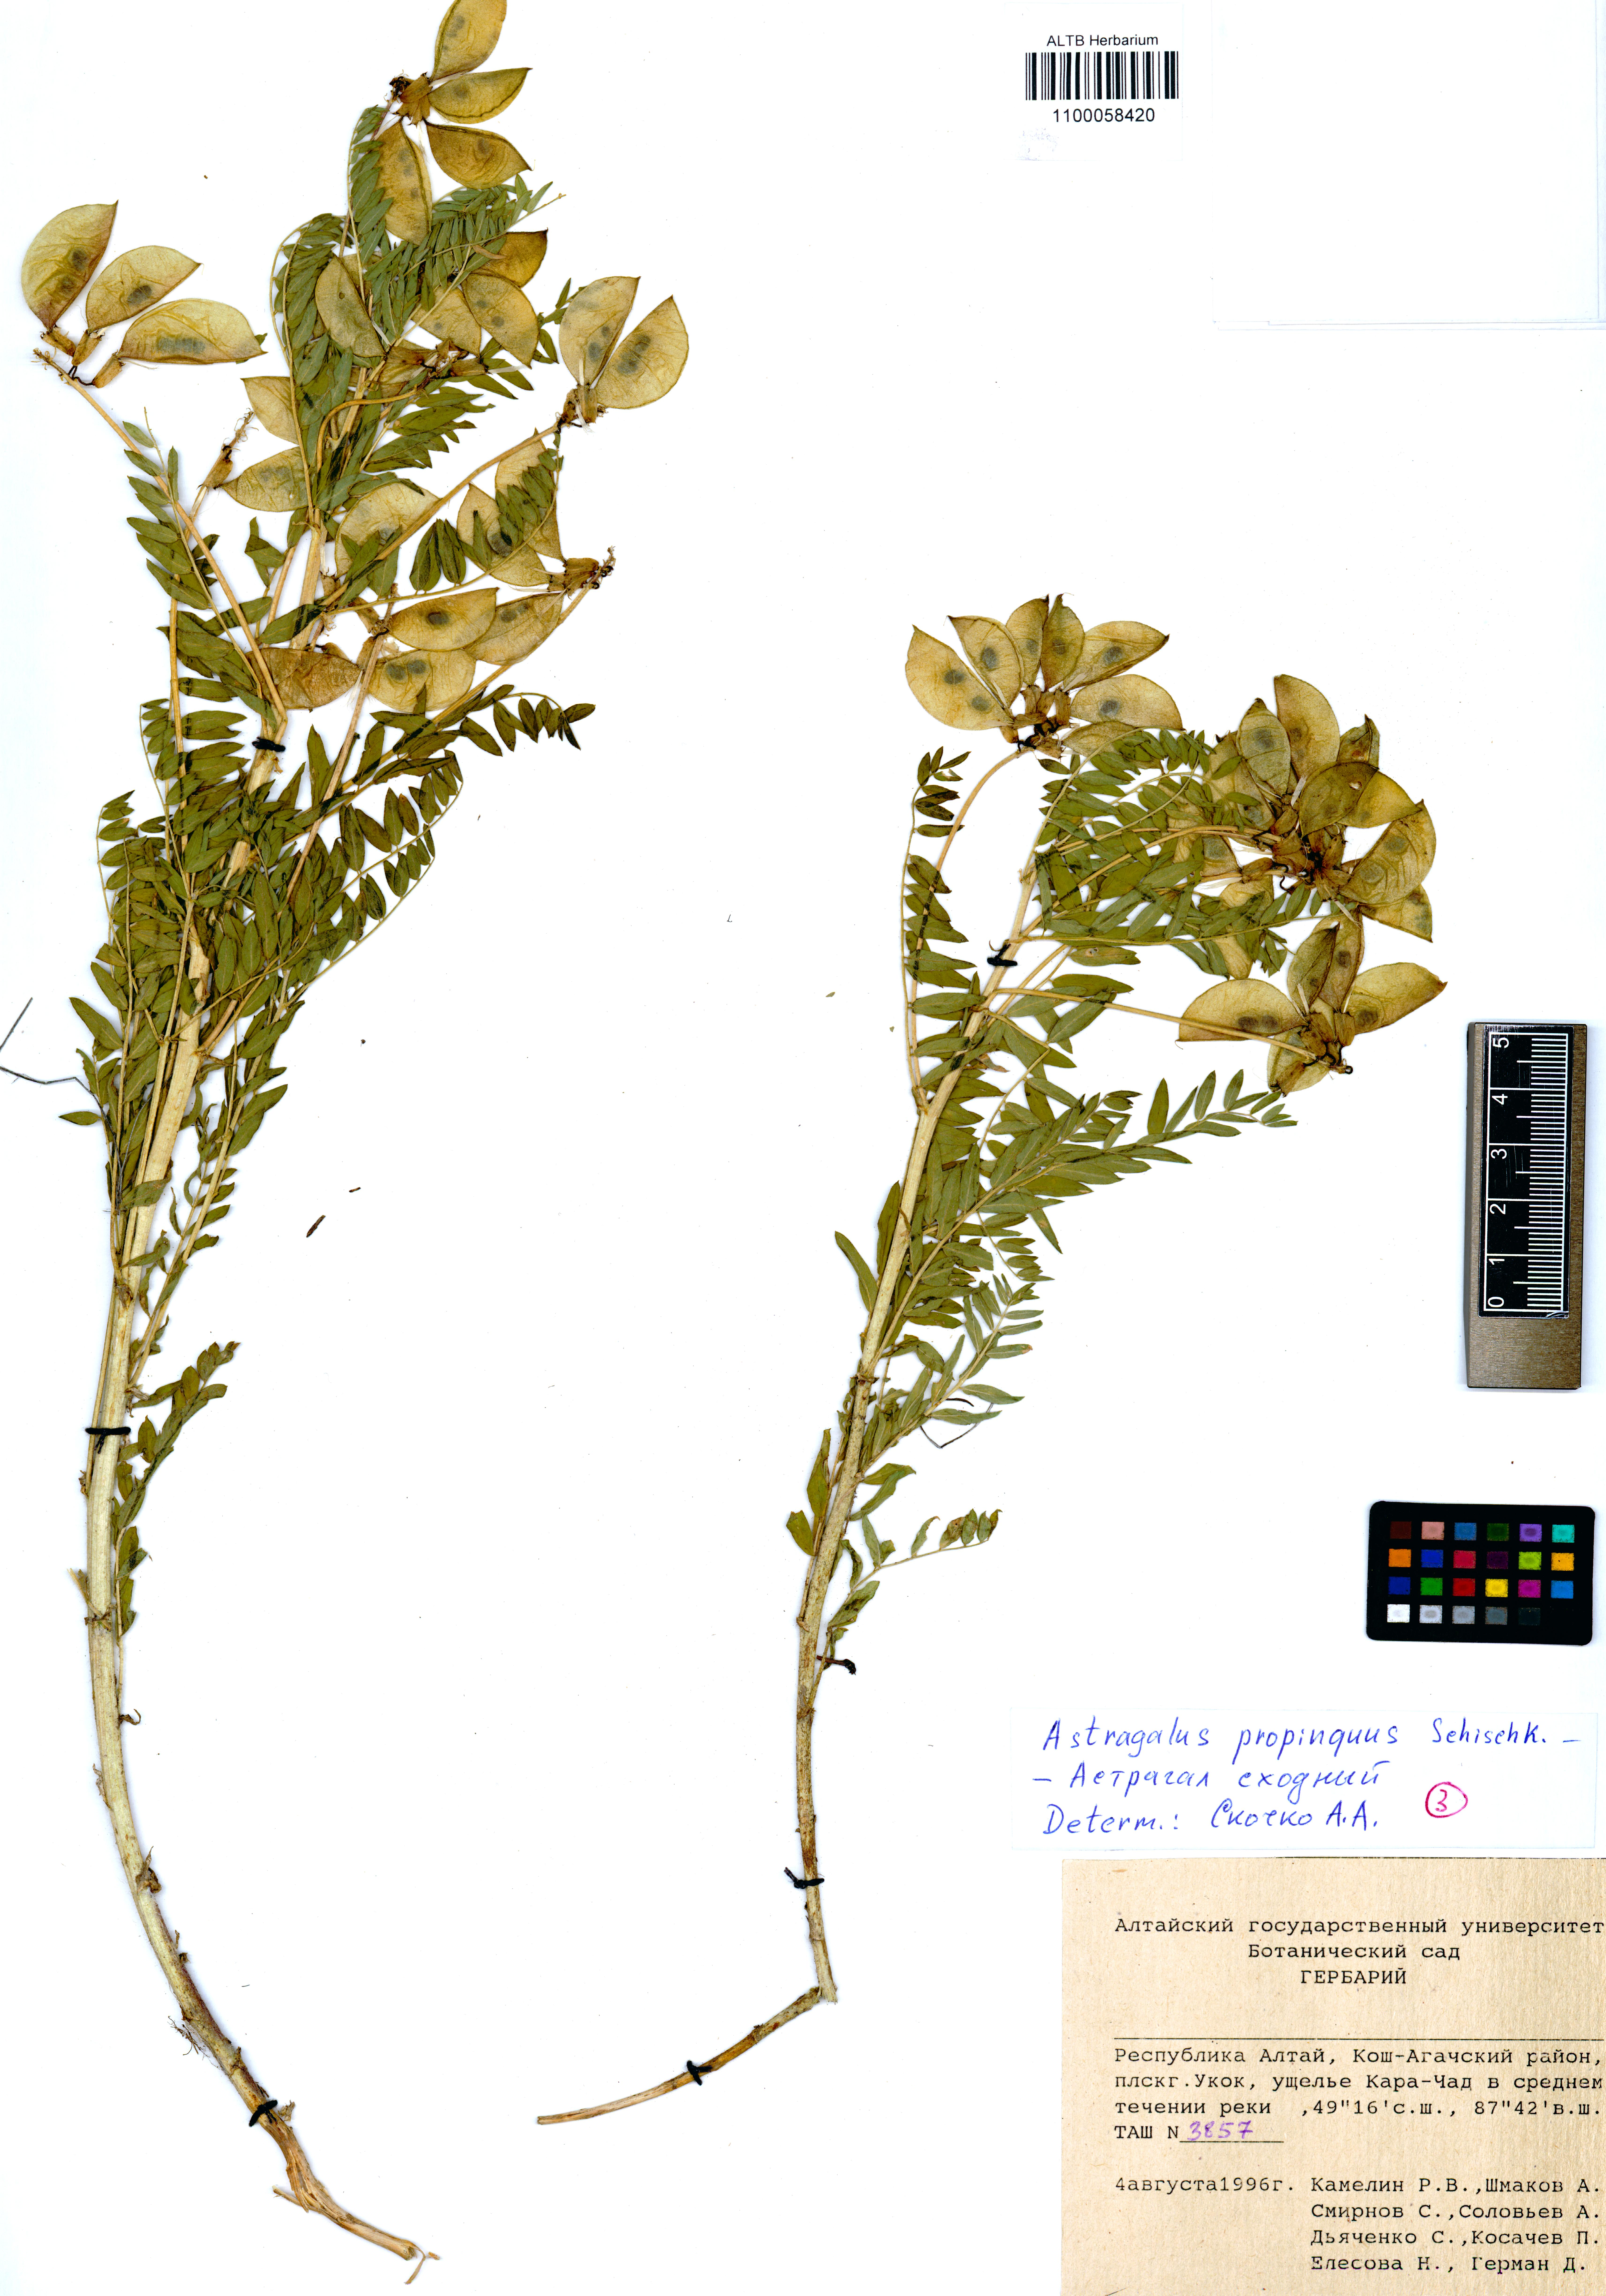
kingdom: Plantae
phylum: Tracheophyta
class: Magnoliopsida
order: Fabales
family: Fabaceae
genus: Astragalus
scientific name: Astragalus mongholicus
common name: Membranous milk-vetch
